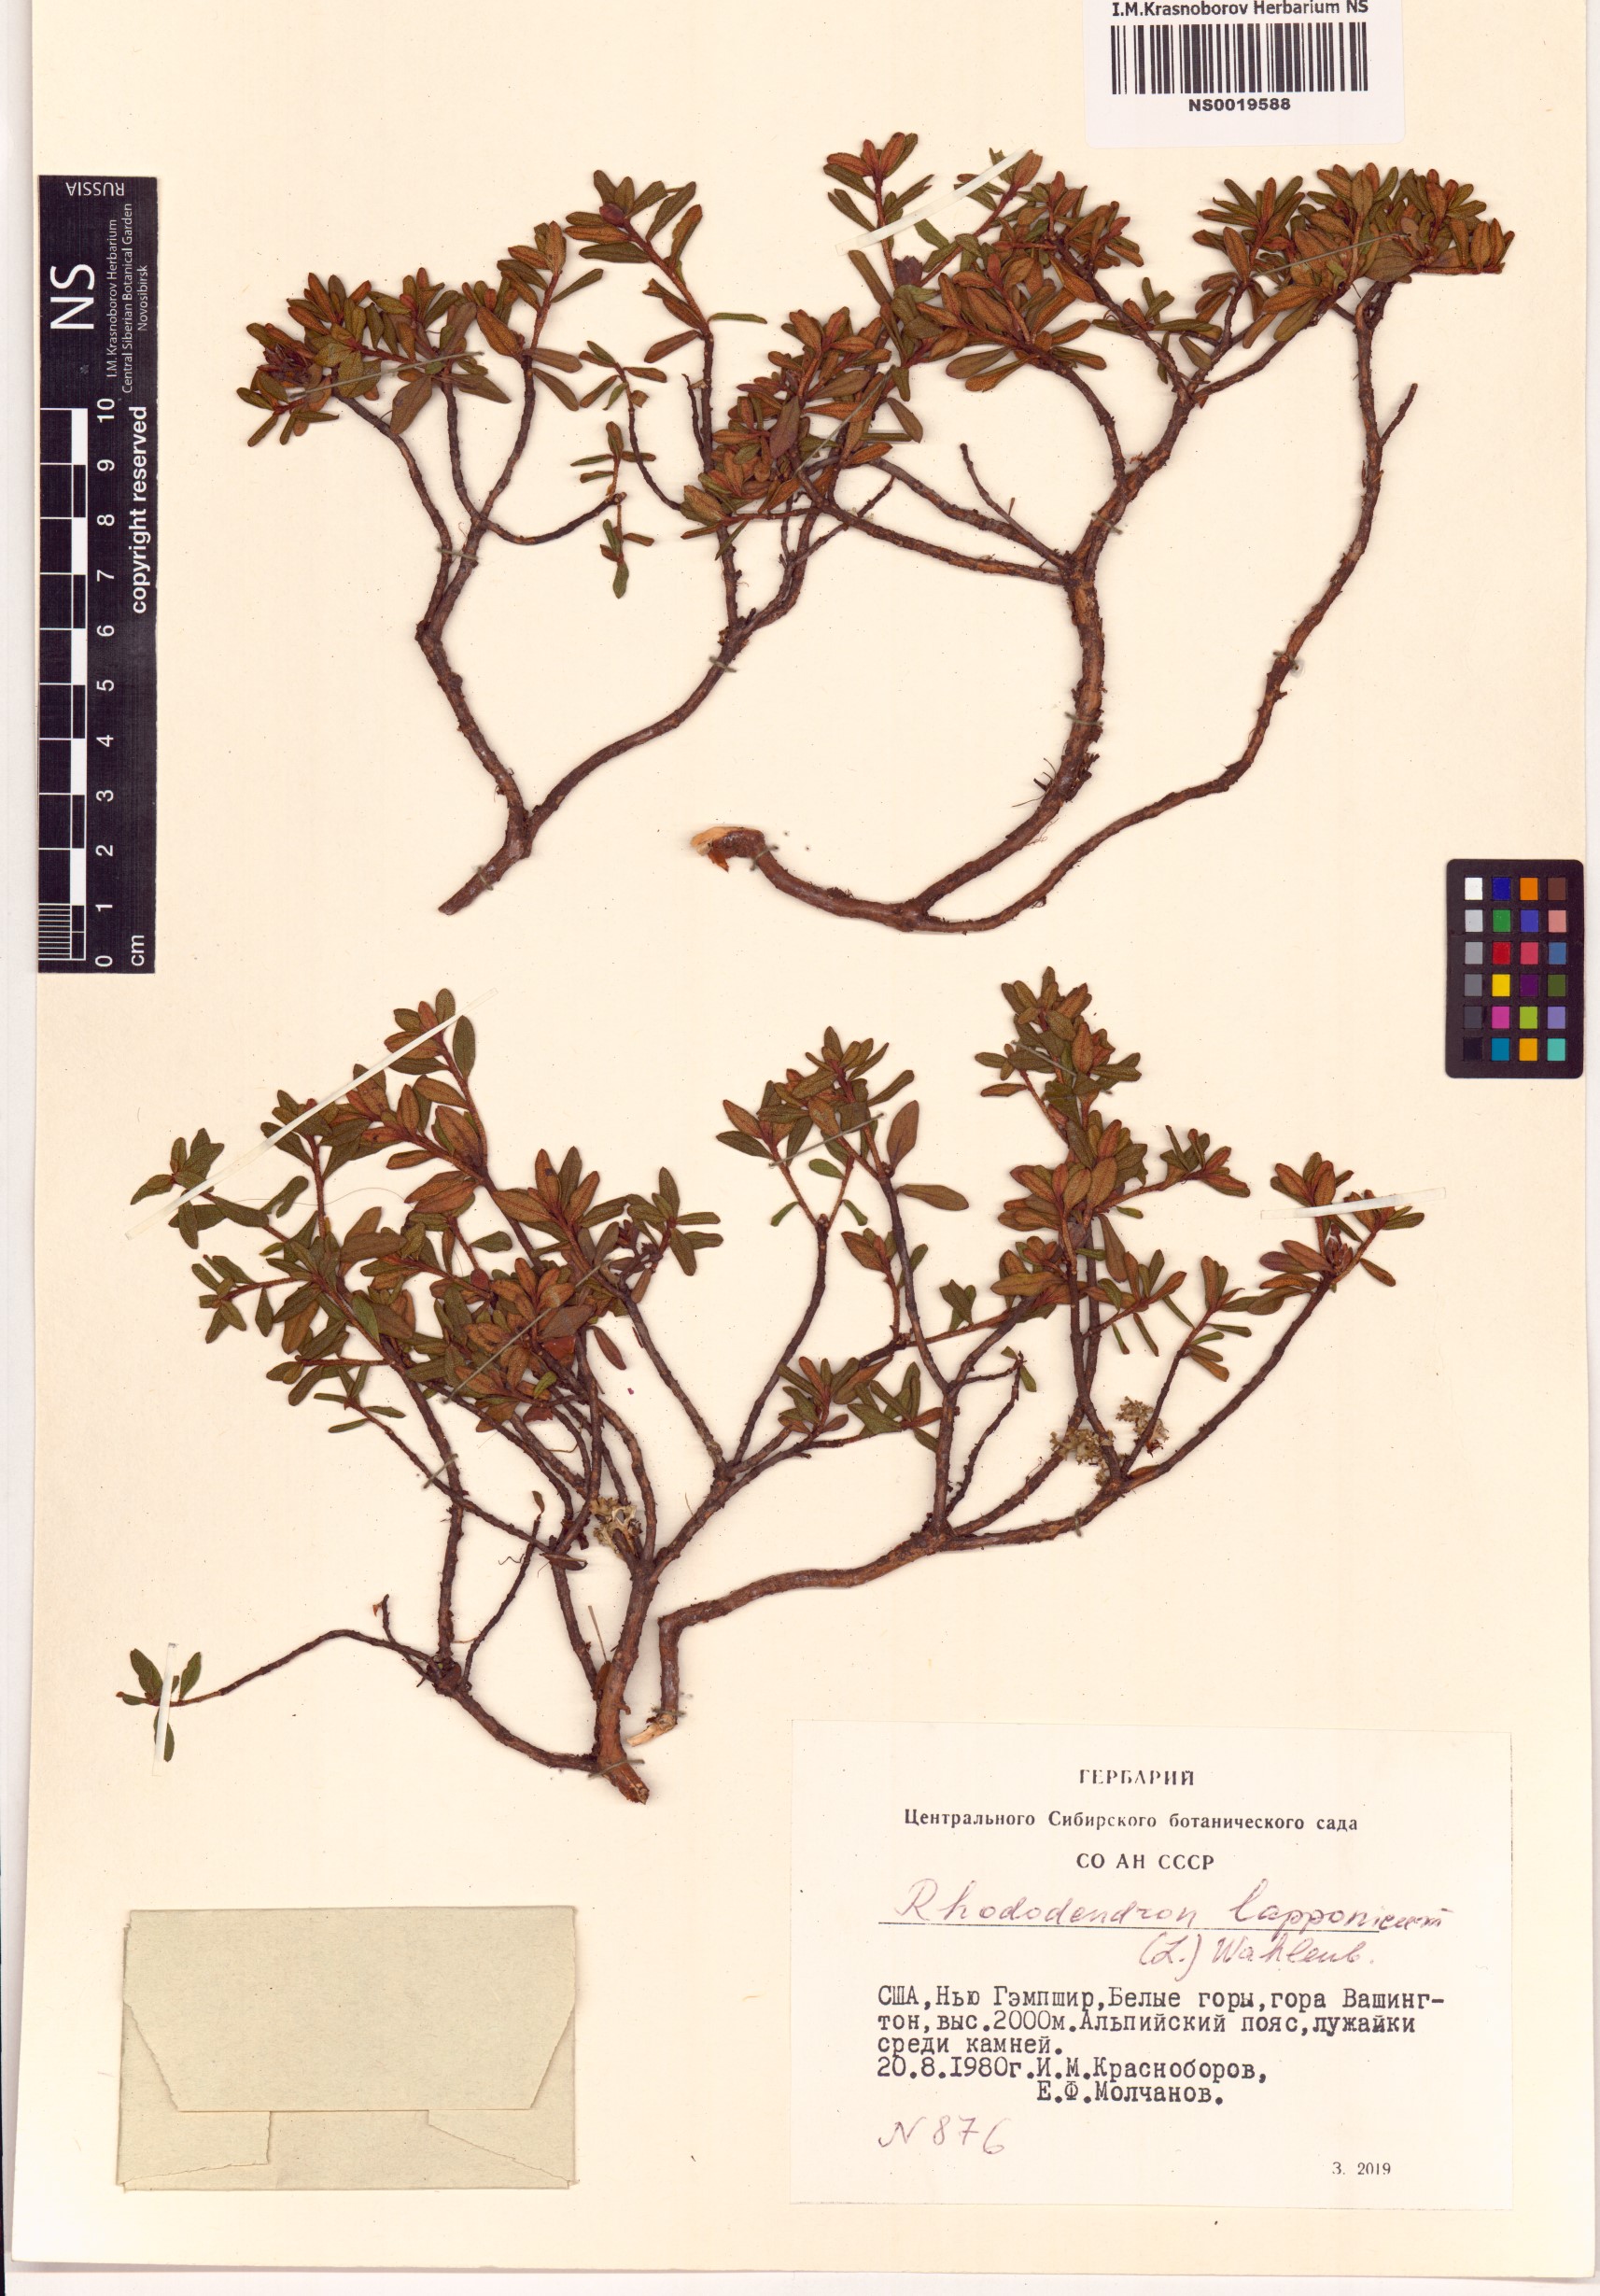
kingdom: Plantae
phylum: Tracheophyta
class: Magnoliopsida
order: Ericales
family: Ericaceae
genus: Rhododendron
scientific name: Rhododendron lapponicum
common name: Lapland rhododendron
